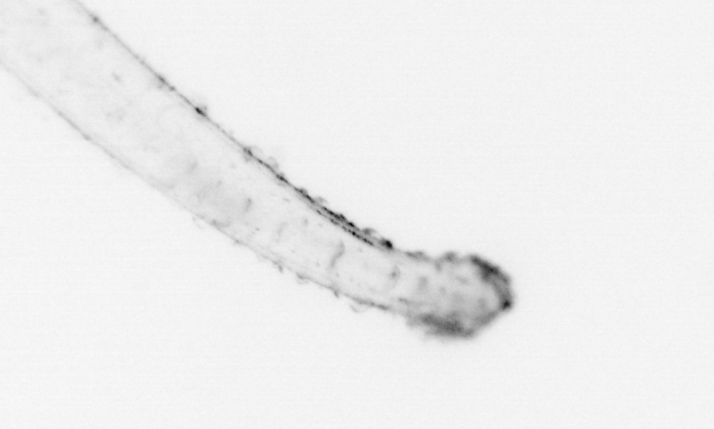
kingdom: Animalia
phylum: Chaetognatha
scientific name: Chaetognatha
